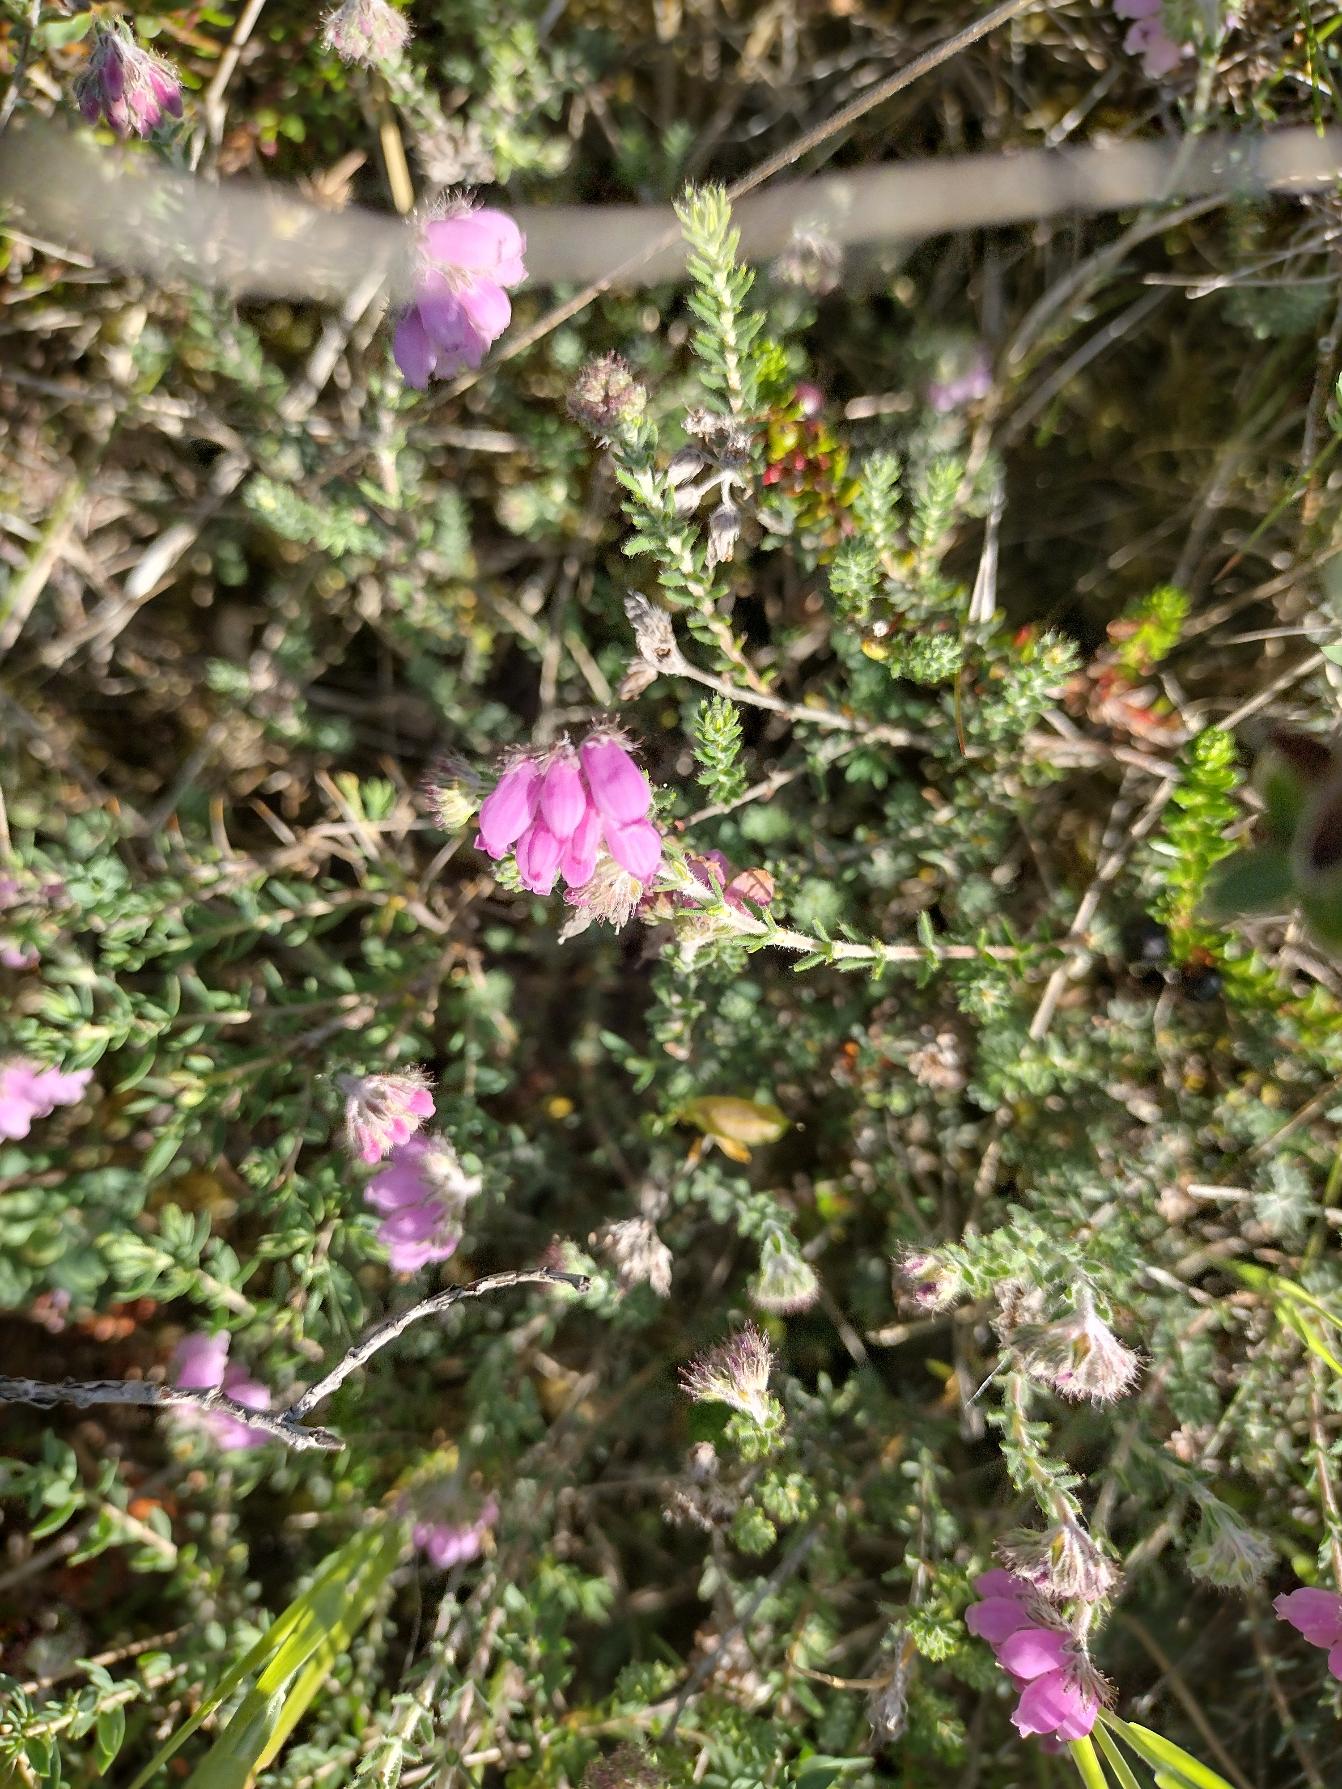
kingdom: Plantae
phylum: Tracheophyta
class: Magnoliopsida
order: Ericales
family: Ericaceae
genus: Erica
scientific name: Erica tetralix
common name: Klokkelyng
